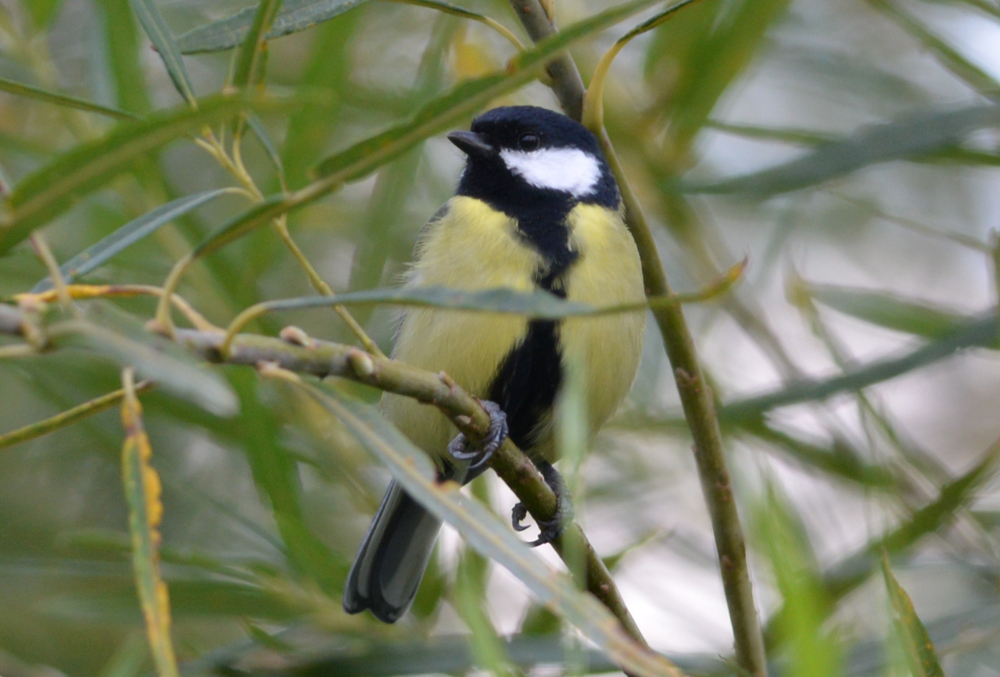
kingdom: Animalia
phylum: Chordata
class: Aves
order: Passeriformes
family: Paridae
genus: Parus
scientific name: Parus major
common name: Great tit
